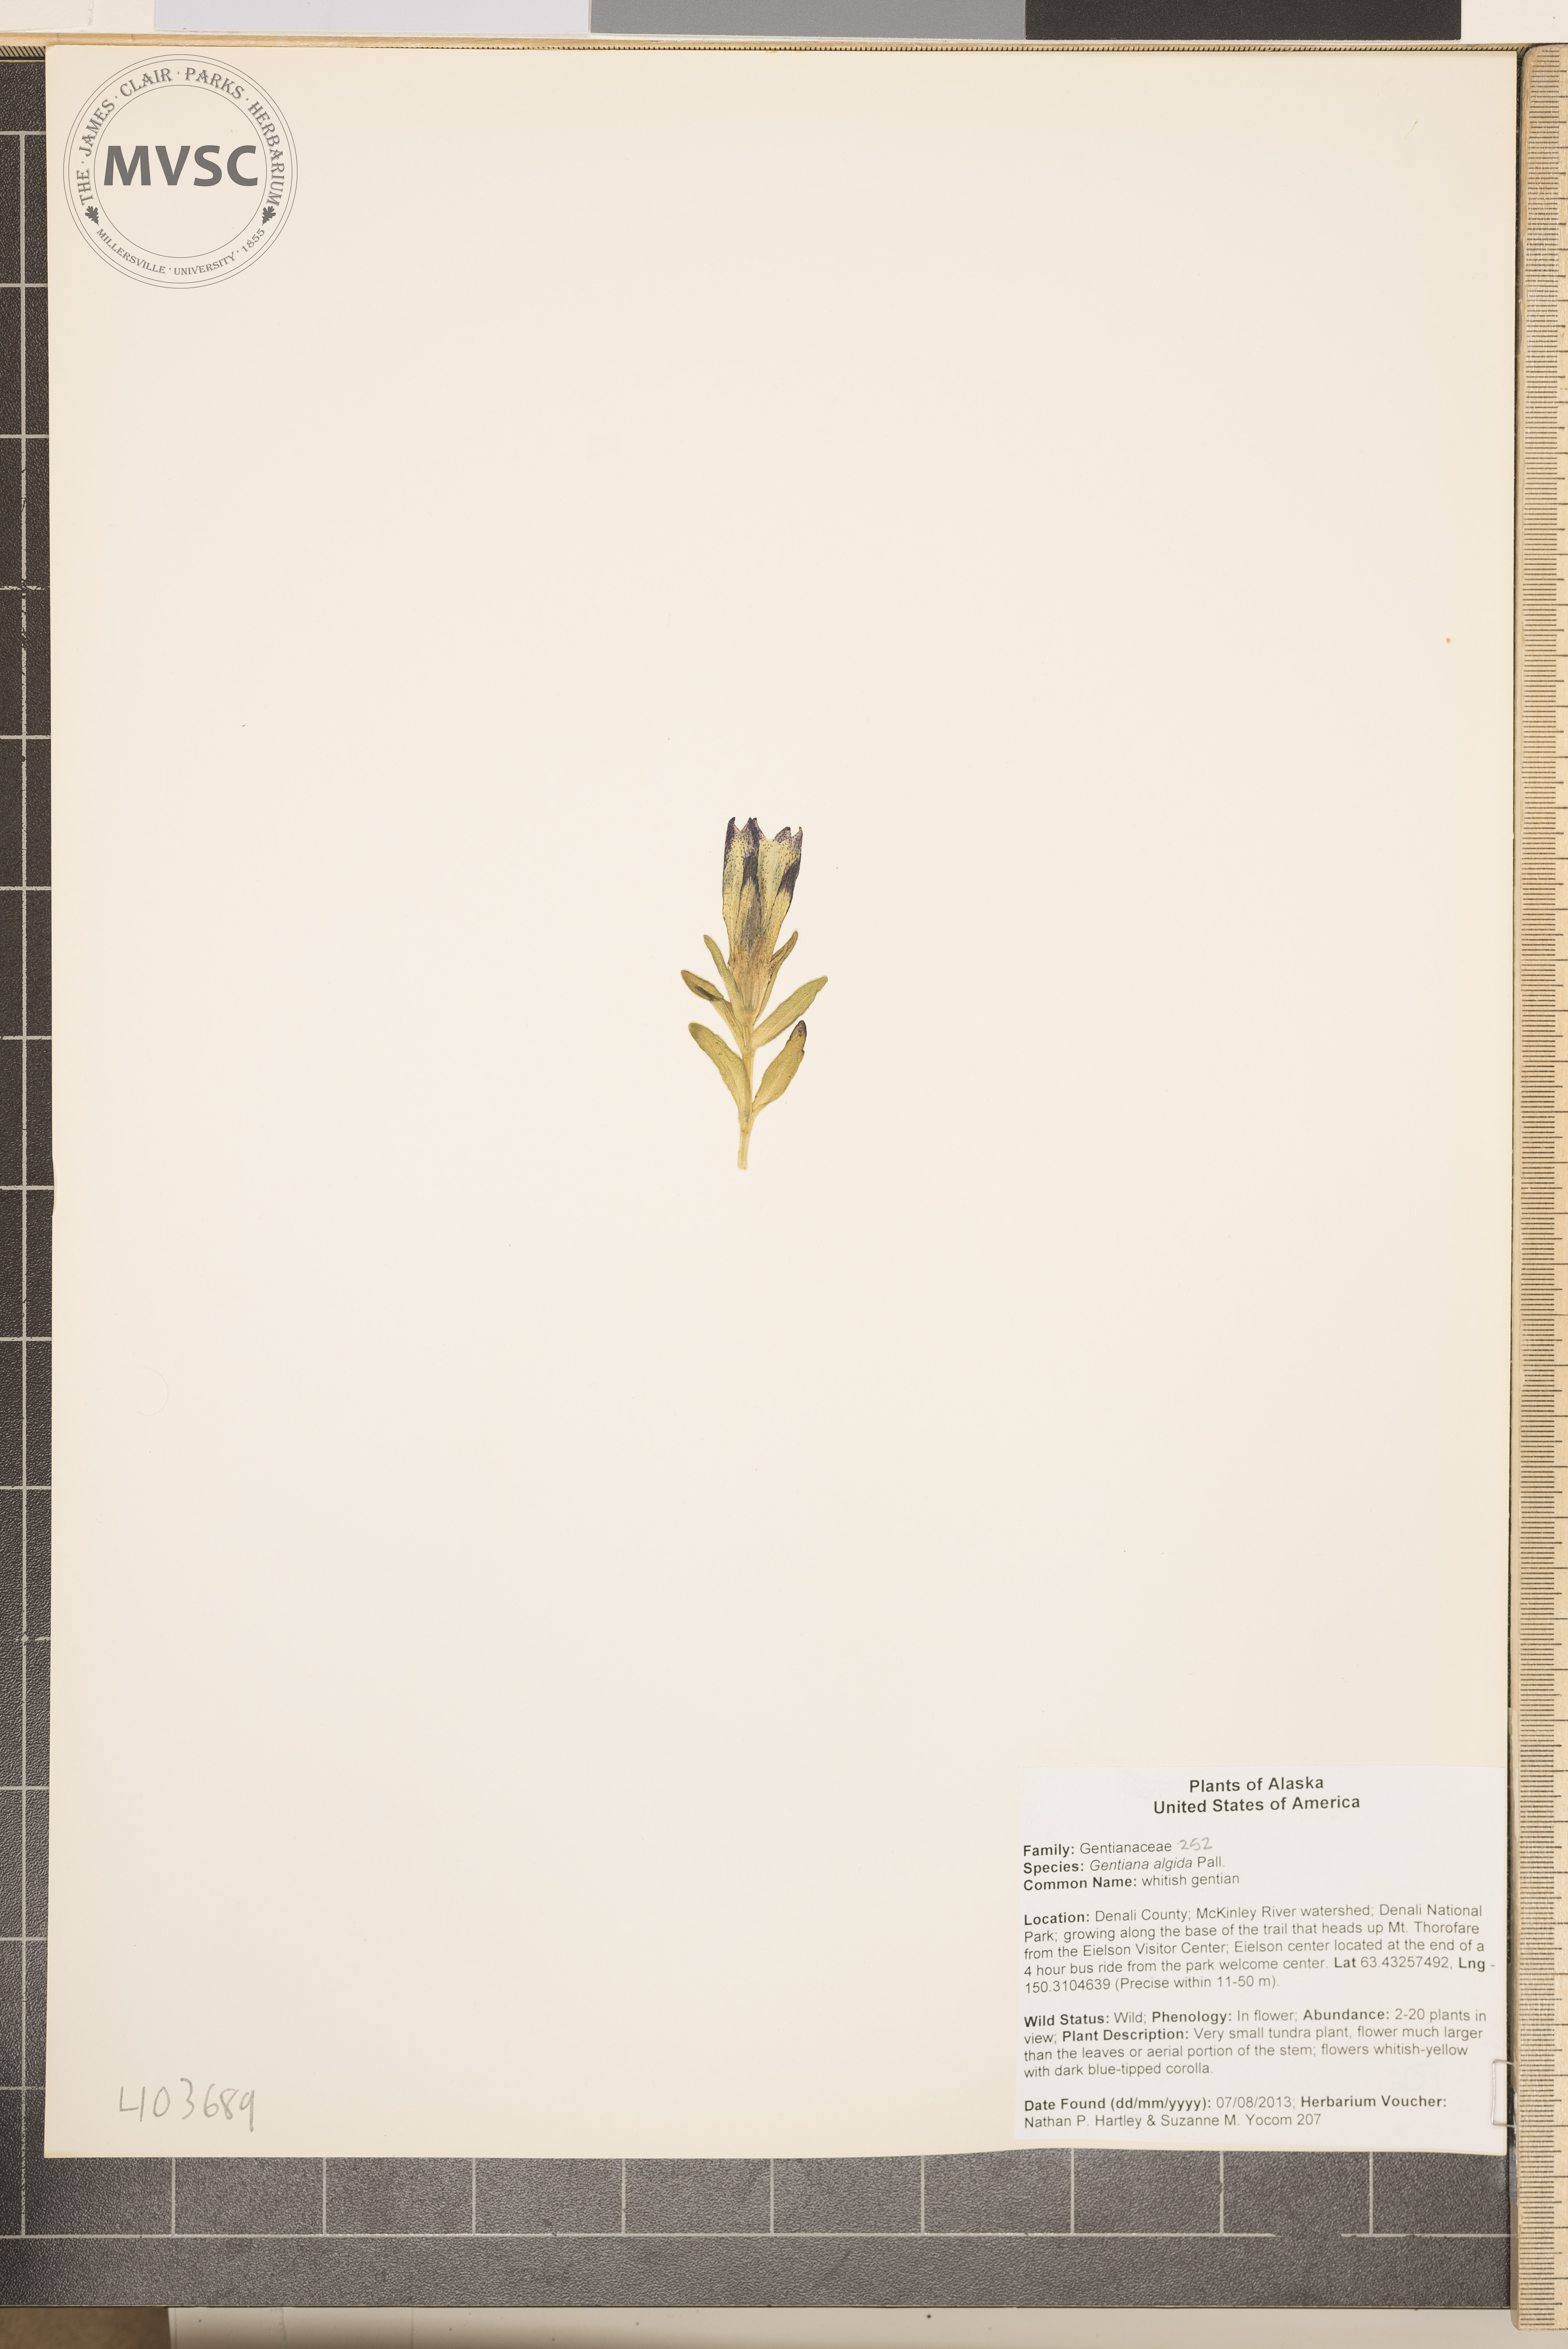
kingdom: Plantae
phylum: Tracheophyta
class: Magnoliopsida
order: Gentianales
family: Gentianaceae
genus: Gentiana
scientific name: Gentiana algida
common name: whitish gentian
